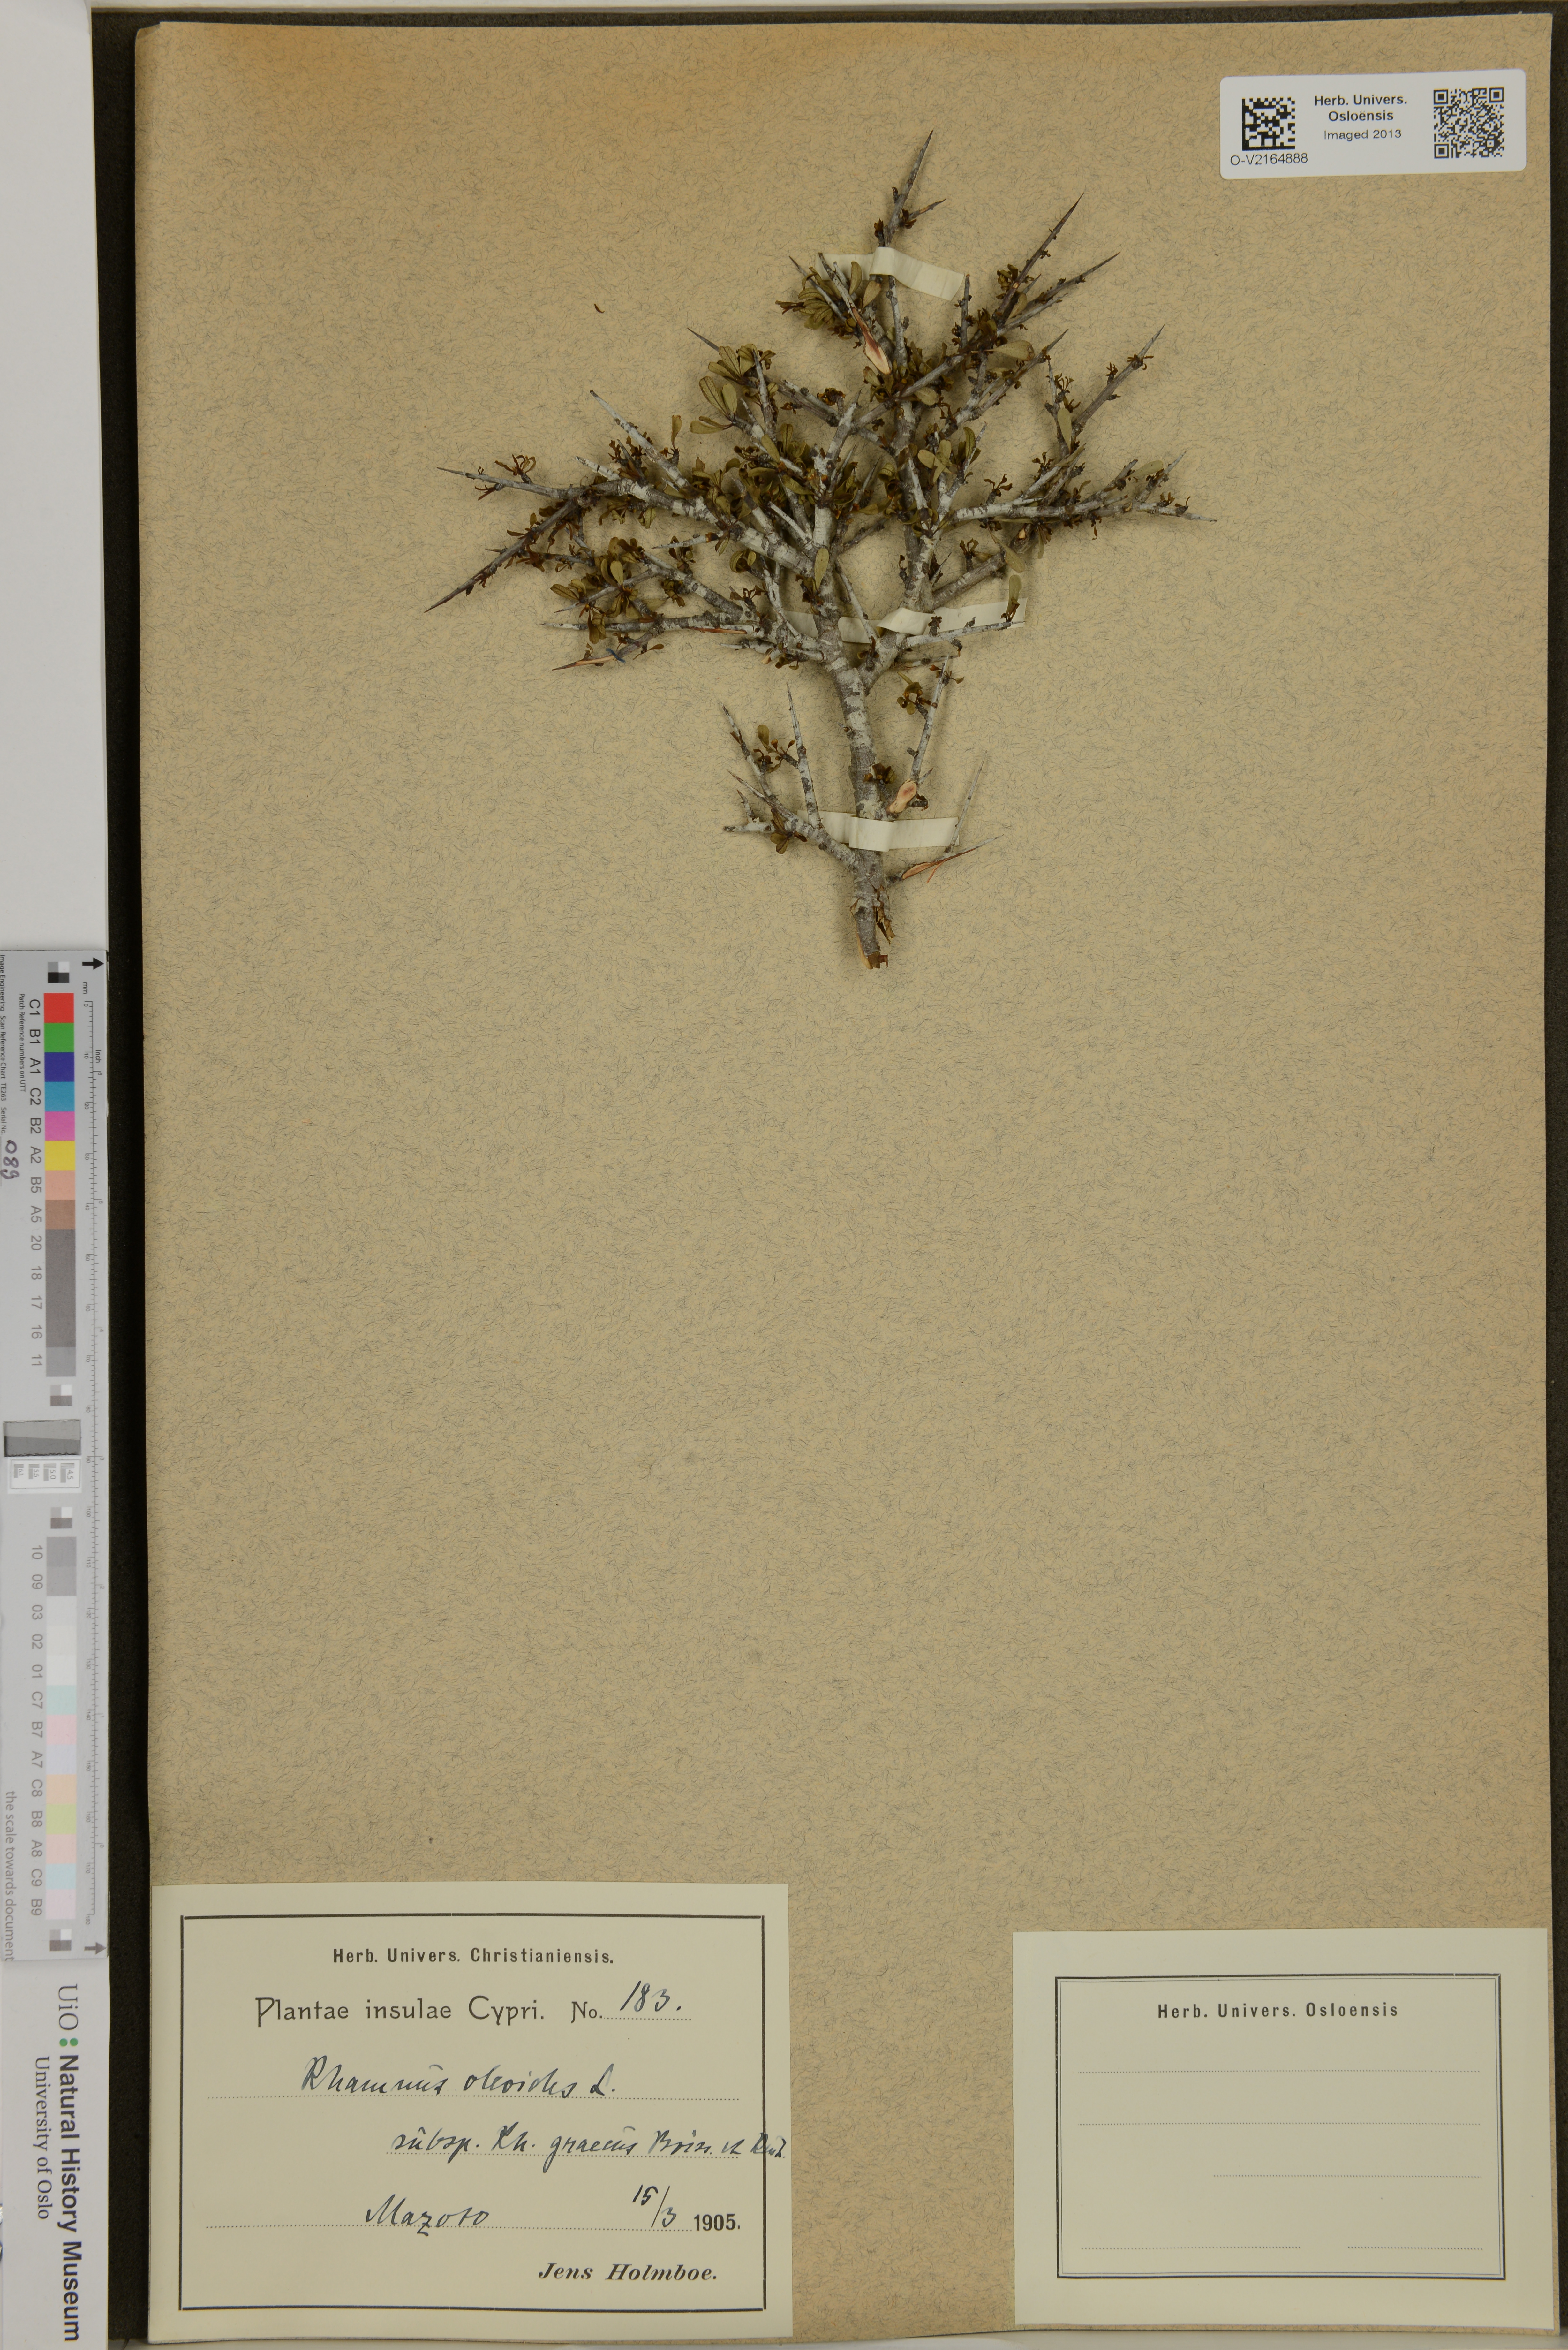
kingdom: Plantae
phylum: Tracheophyta
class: Magnoliopsida
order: Rosales
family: Rhamnaceae
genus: Rhamnus
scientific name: Rhamnus oleoides
